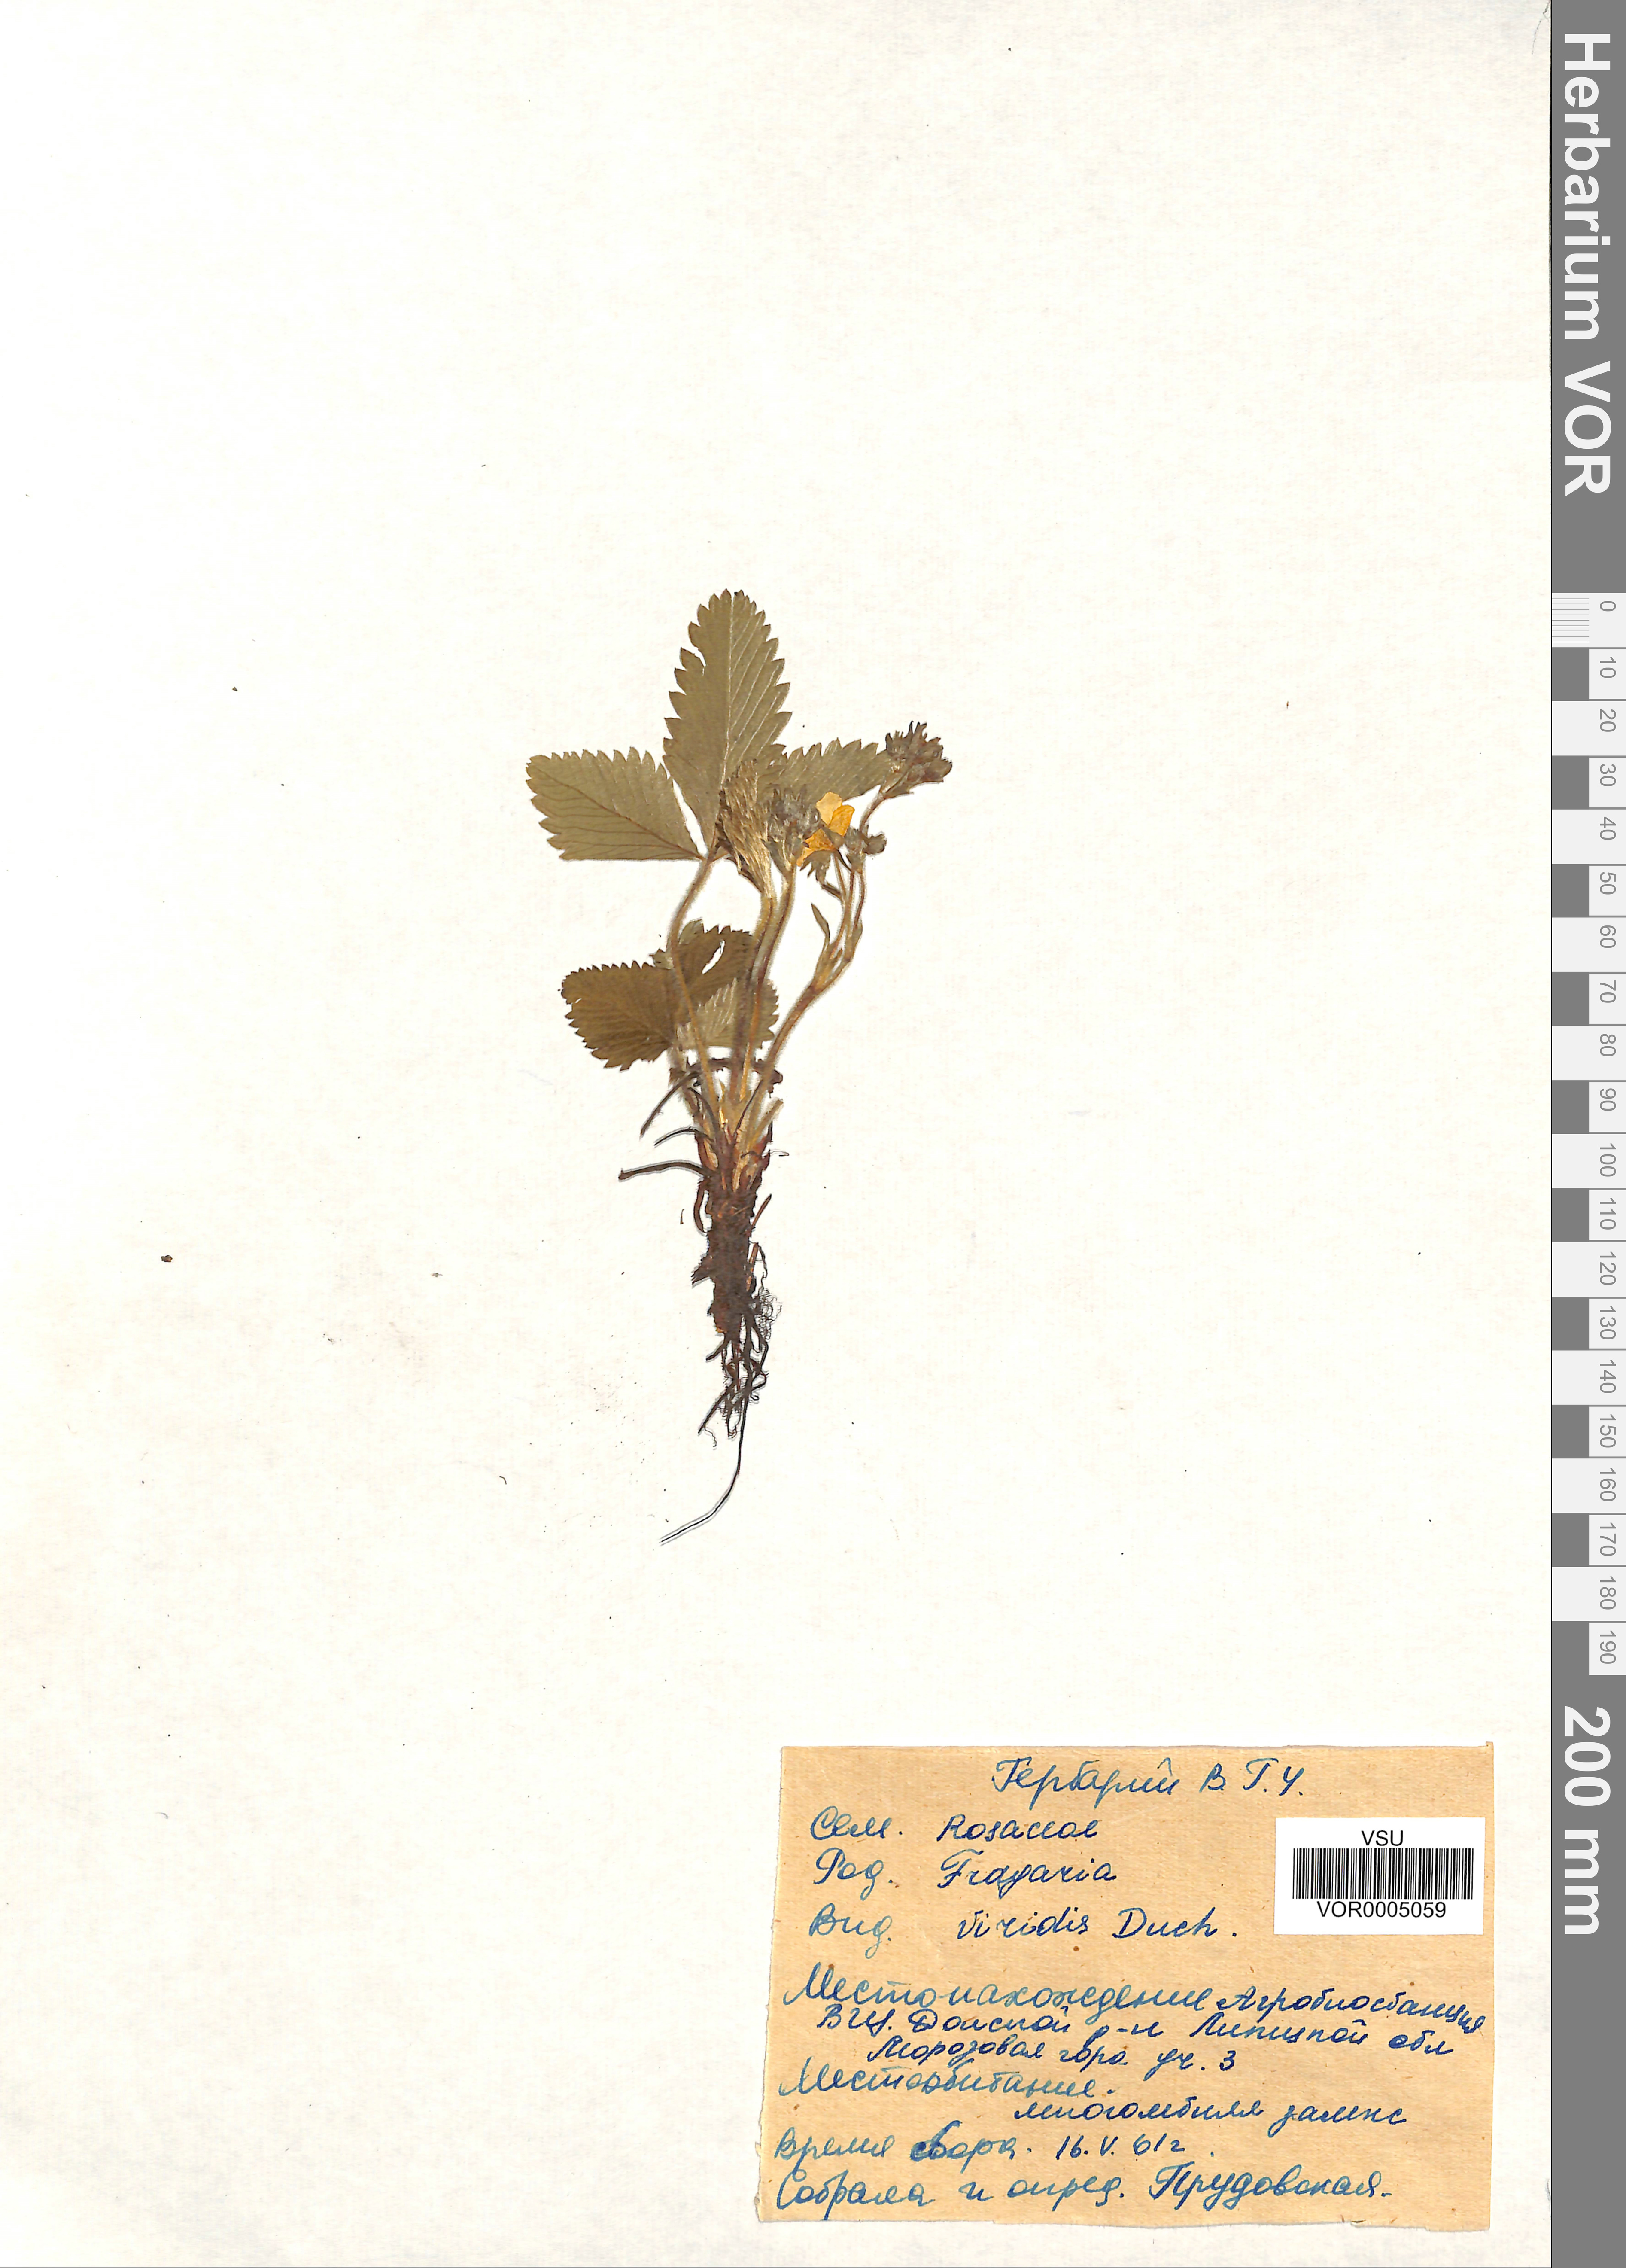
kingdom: Plantae
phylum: Tracheophyta
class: Magnoliopsida
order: Rosales
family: Rosaceae
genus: Fragaria
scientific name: Fragaria viridis
